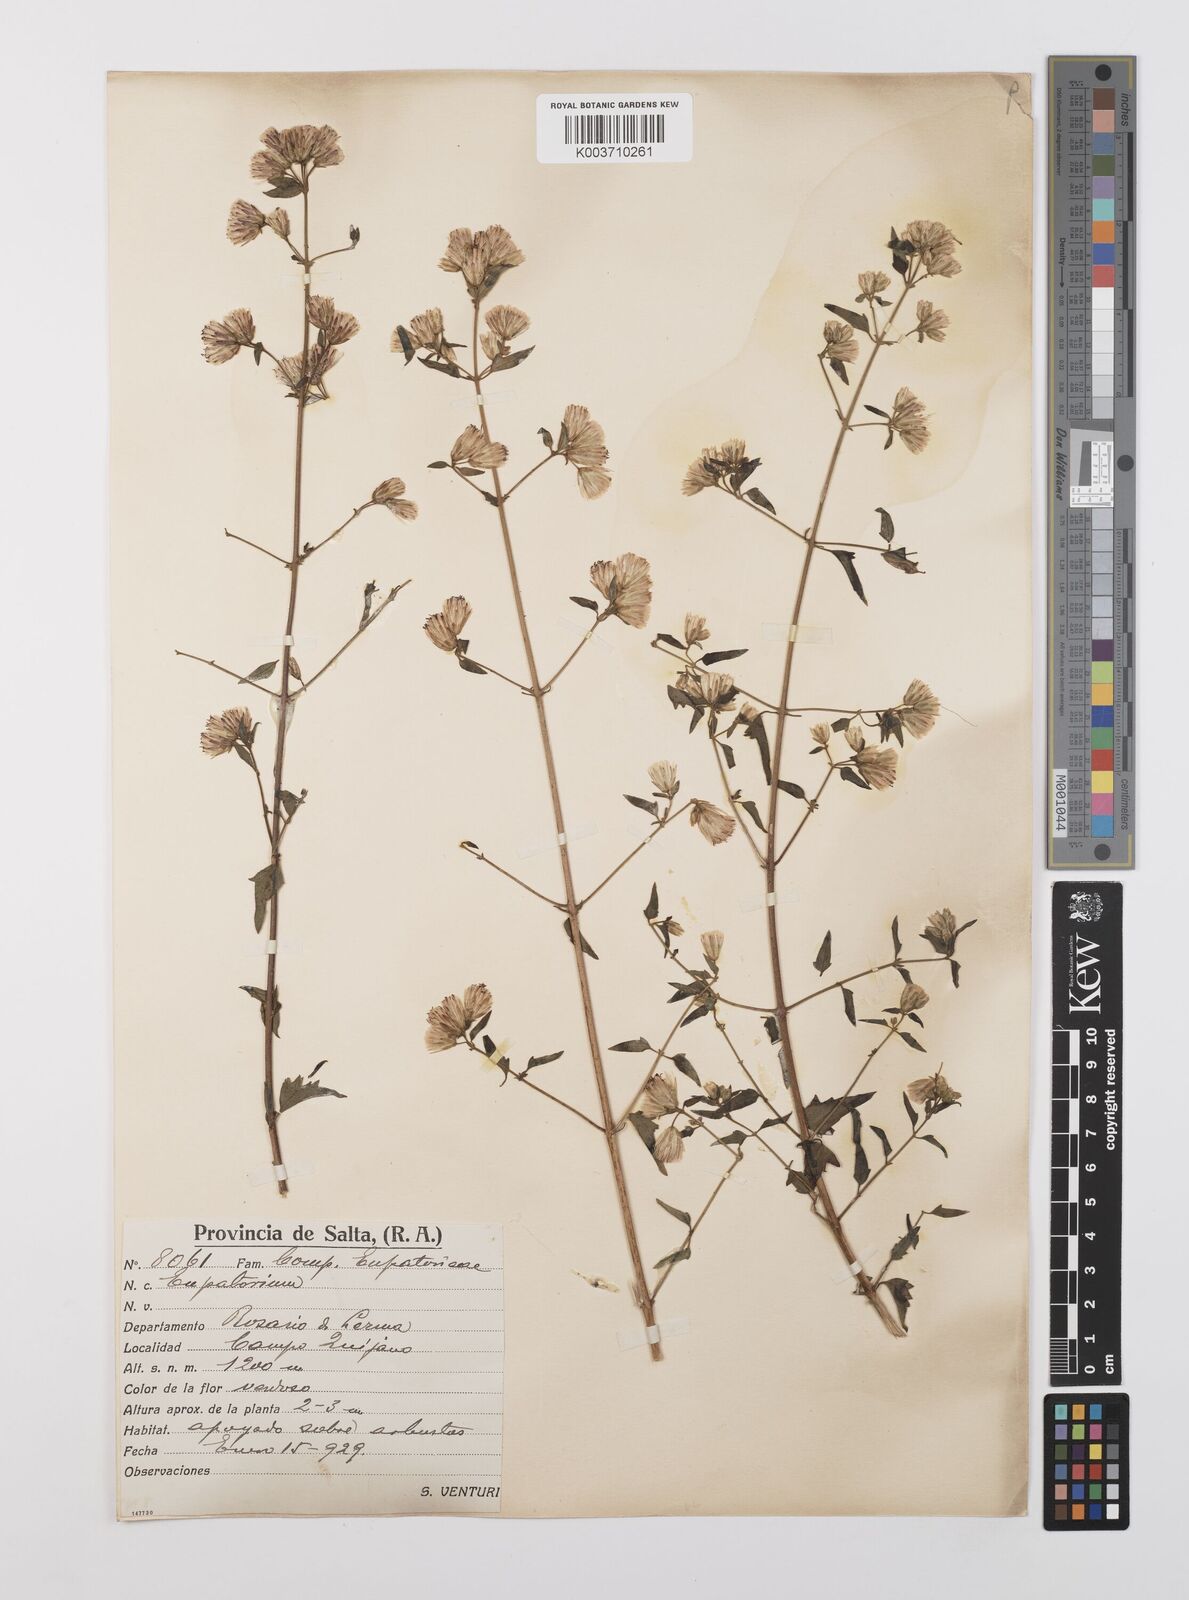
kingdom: Plantae
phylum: Tracheophyta
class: Magnoliopsida
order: Asterales
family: Asteraceae
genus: Austrobrickellia
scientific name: Austrobrickellia patens
